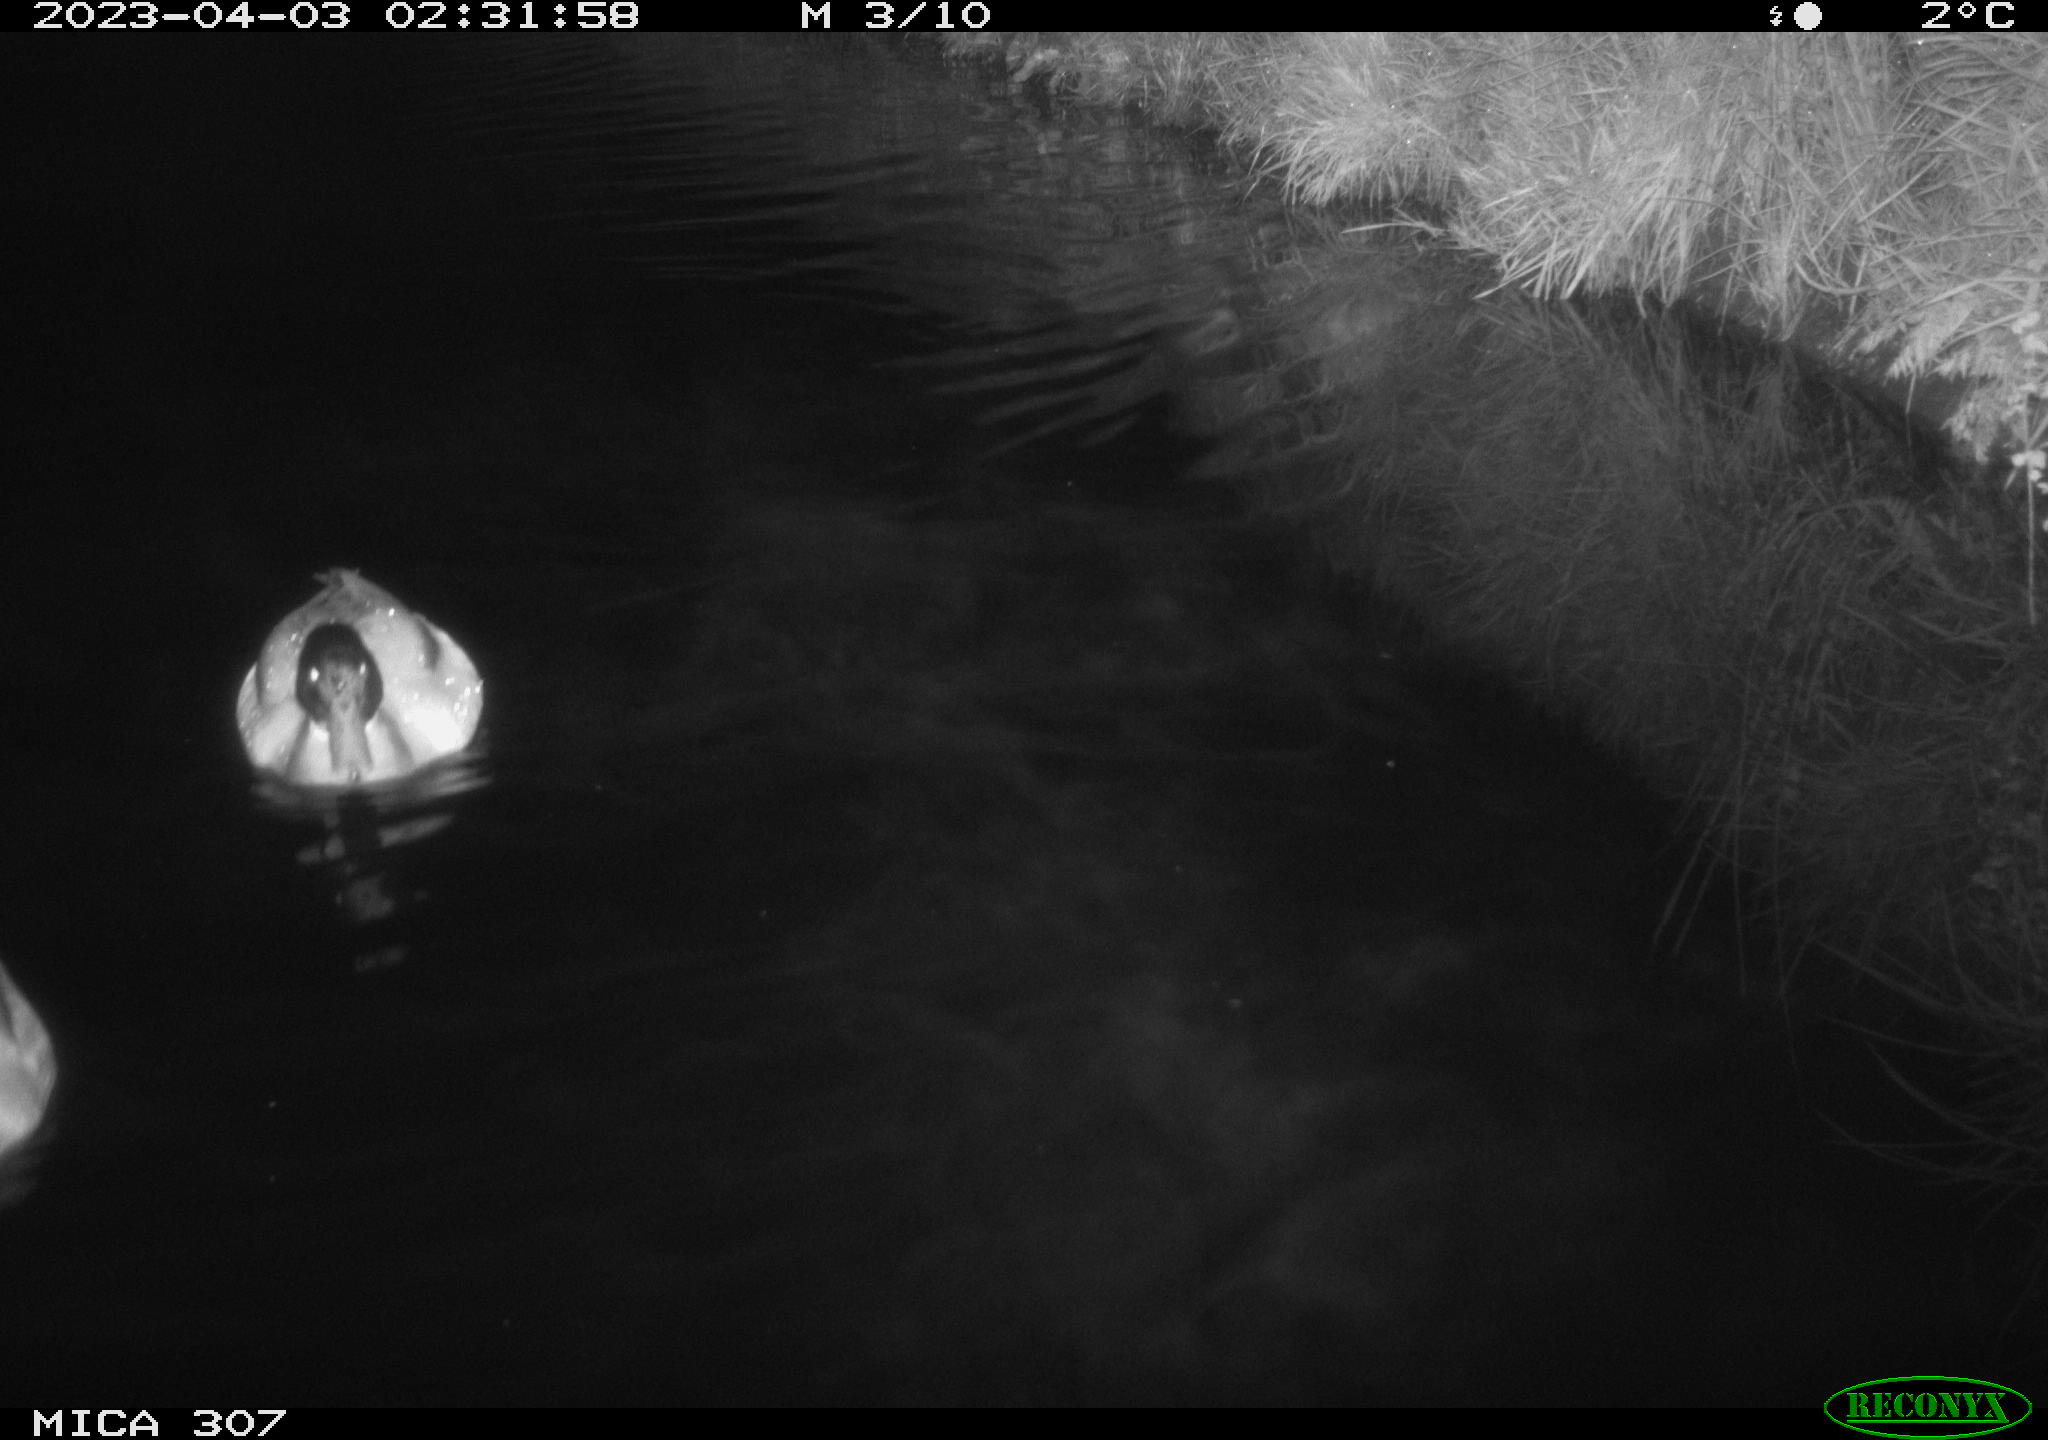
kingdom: Animalia
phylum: Chordata
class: Aves
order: Anseriformes
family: Anatidae
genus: Anas
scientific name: Anas
